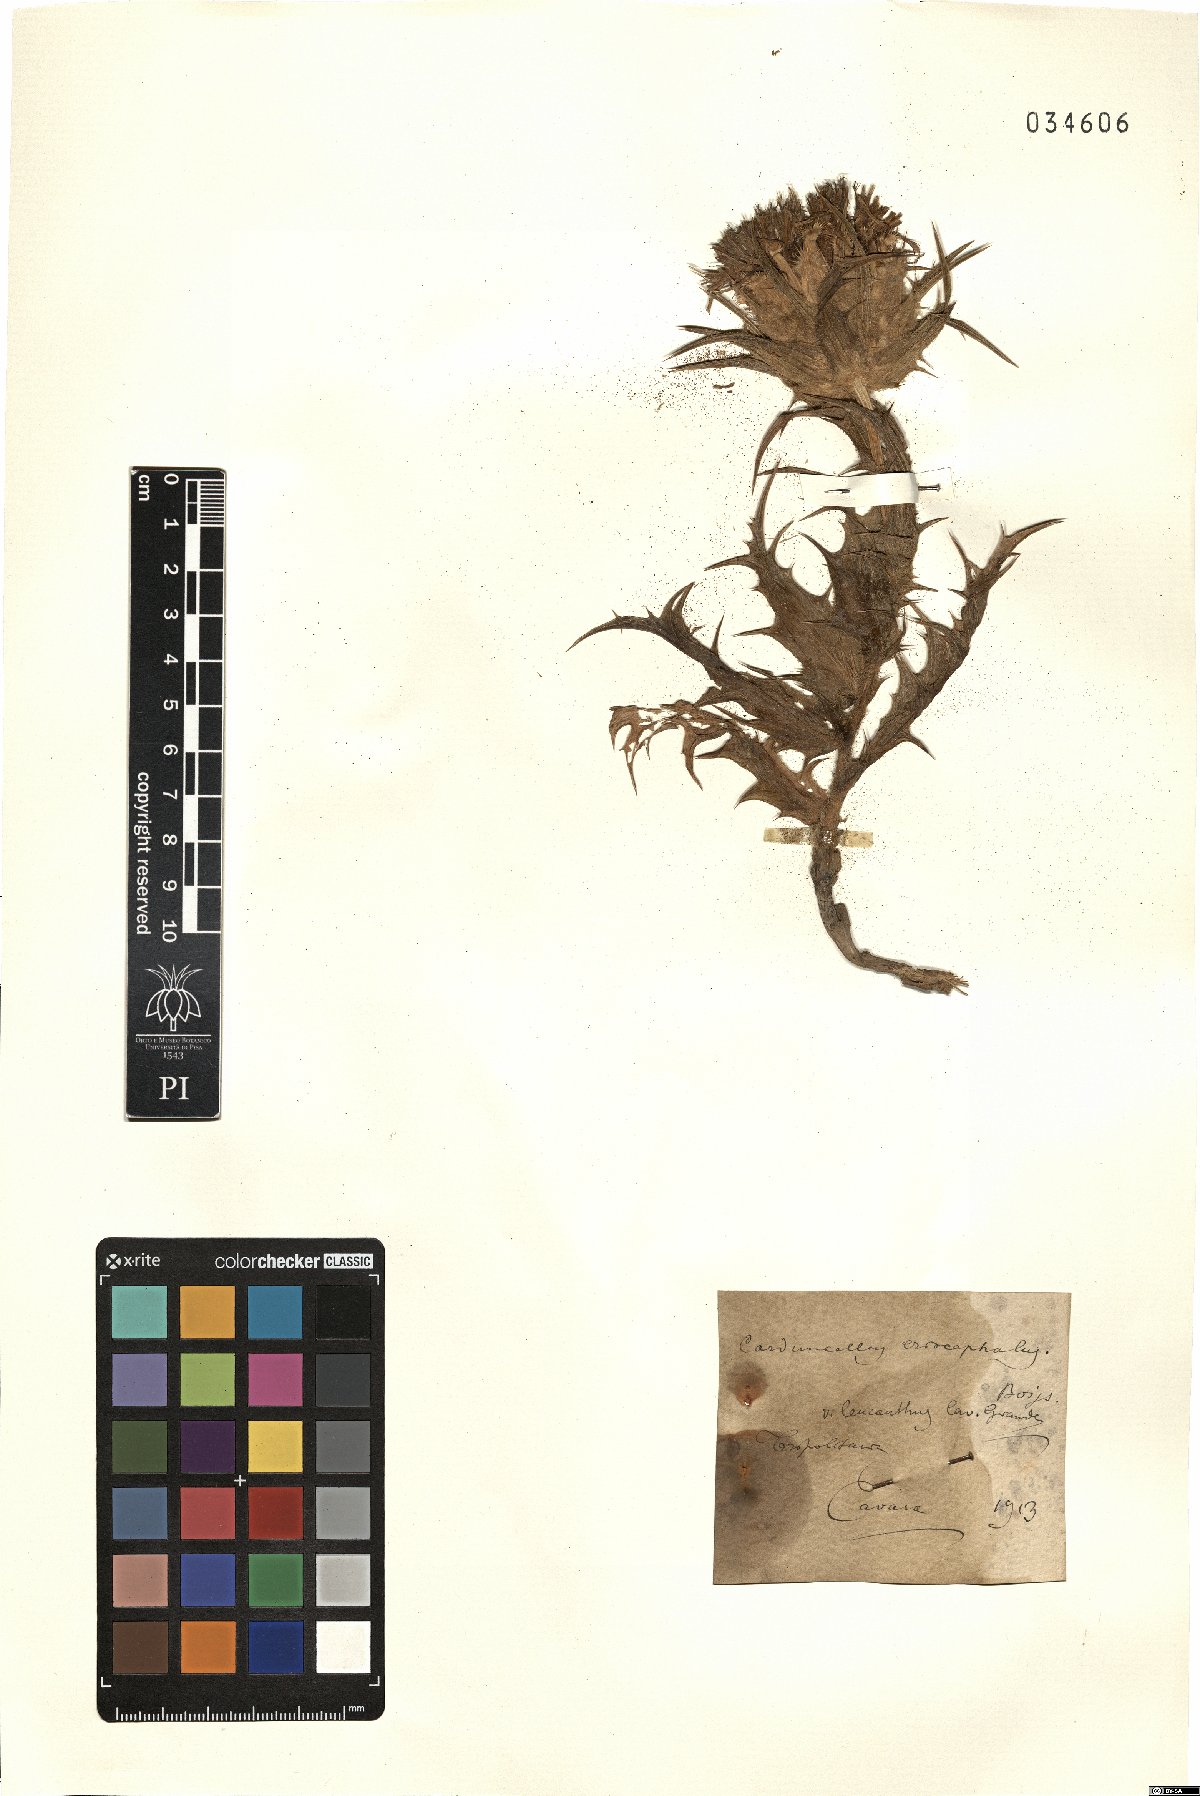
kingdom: Plantae
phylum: Tracheophyta
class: Magnoliopsida
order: Asterales
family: Asteraceae
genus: Carduncellus
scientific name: Carduncellus eriocephalus
